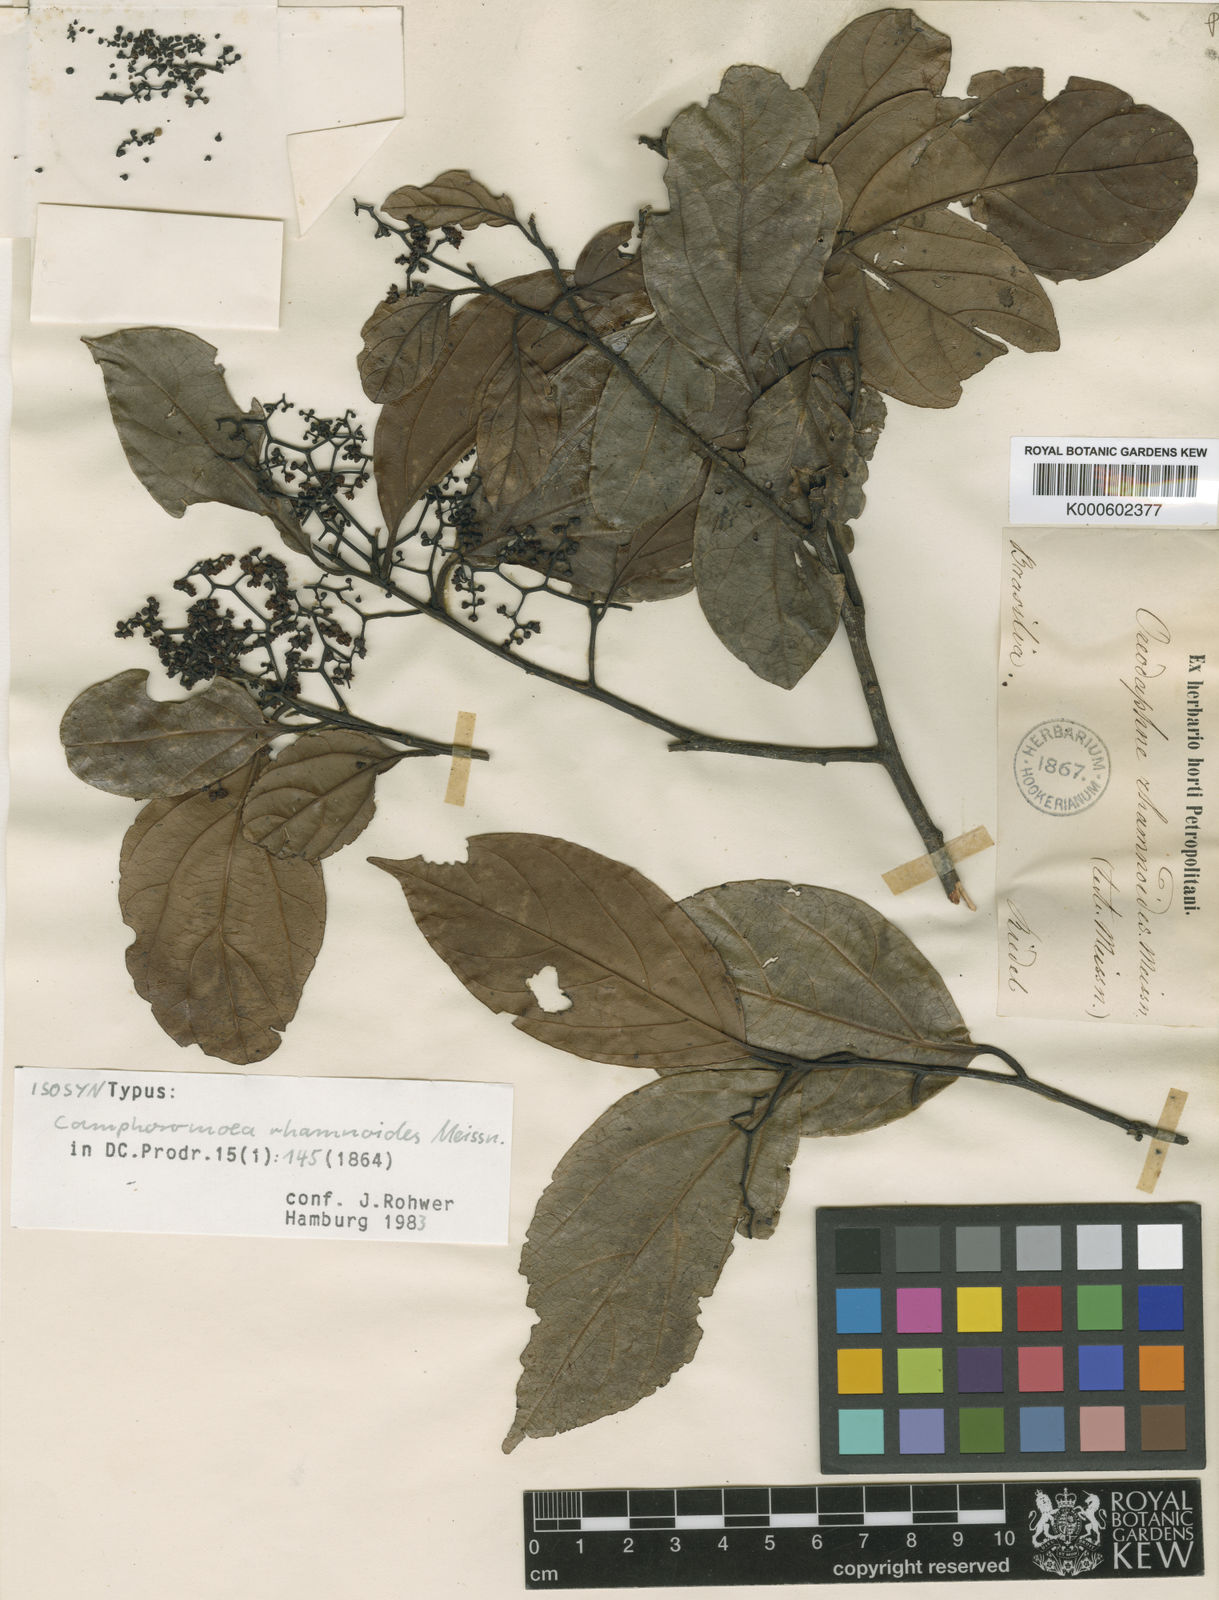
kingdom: Plantae
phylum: Tracheophyta
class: Magnoliopsida
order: Laurales
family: Lauraceae
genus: Ocotea
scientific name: Ocotea
